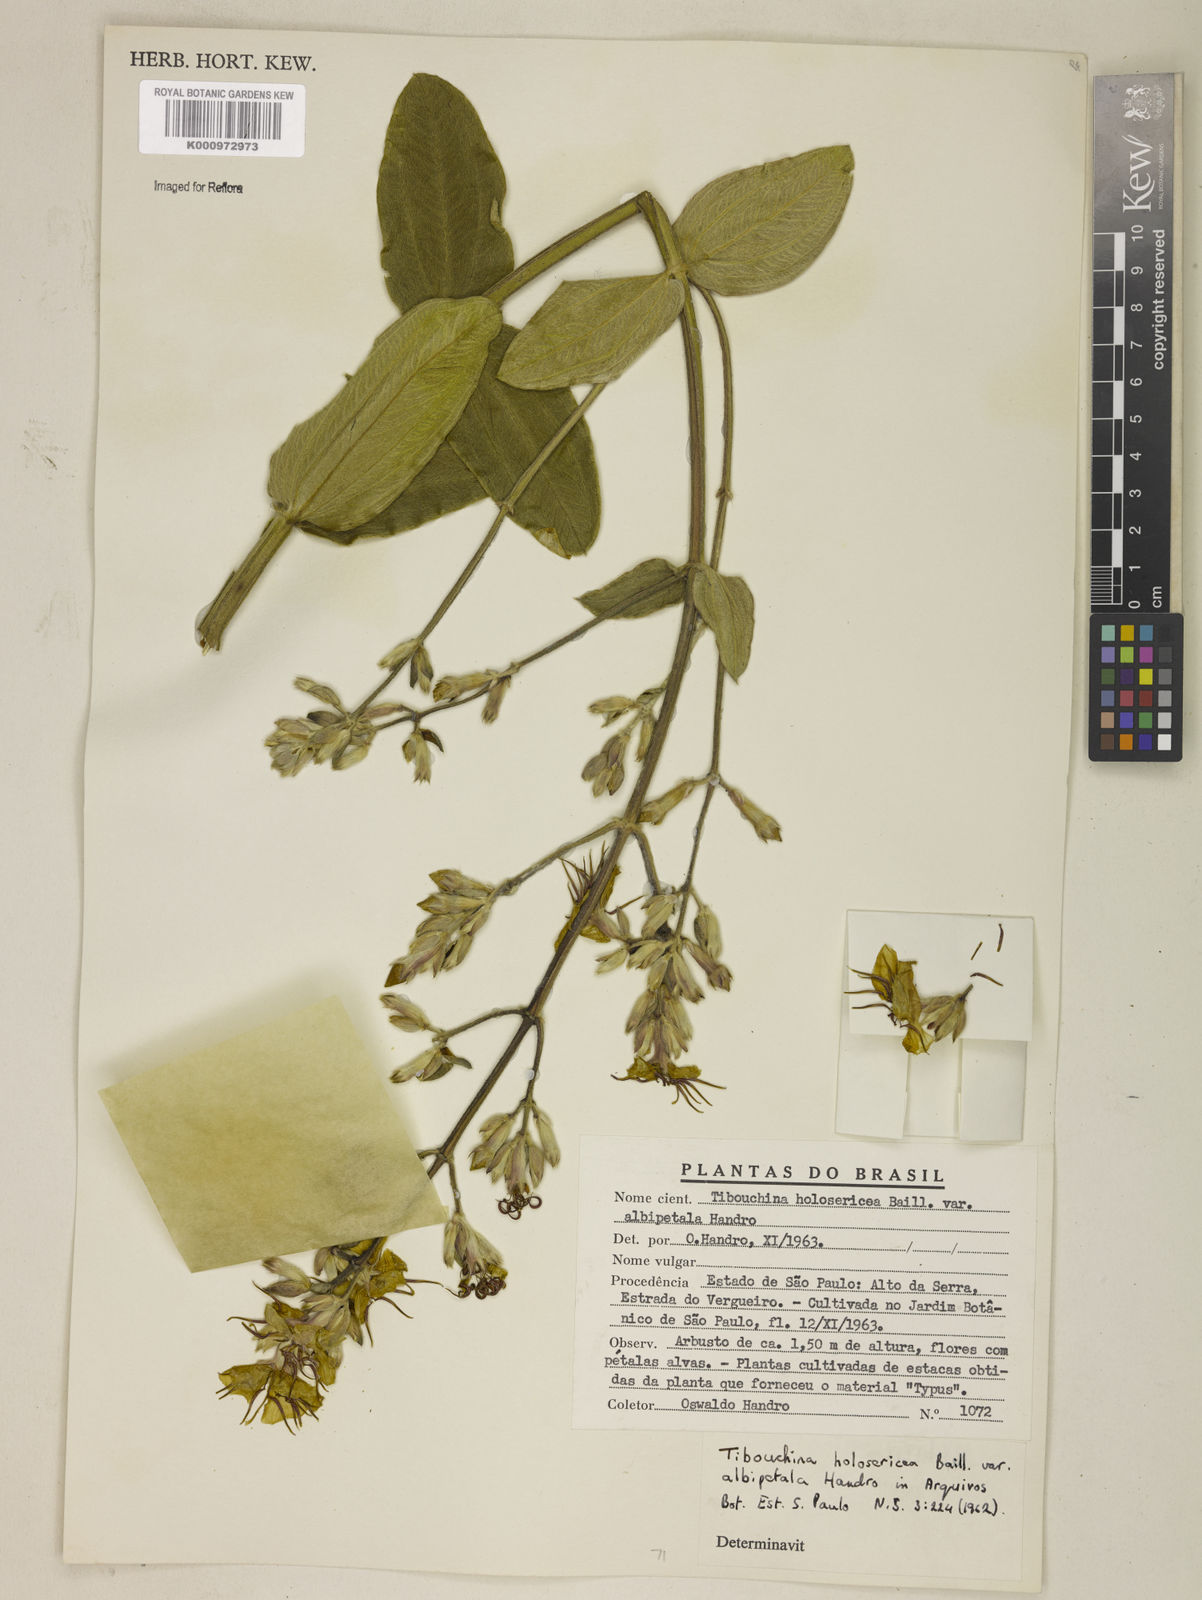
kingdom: Plantae
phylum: Tracheophyta
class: Magnoliopsida
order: Myrtales
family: Melastomataceae
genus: Pleroma
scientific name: Pleroma clavatum
